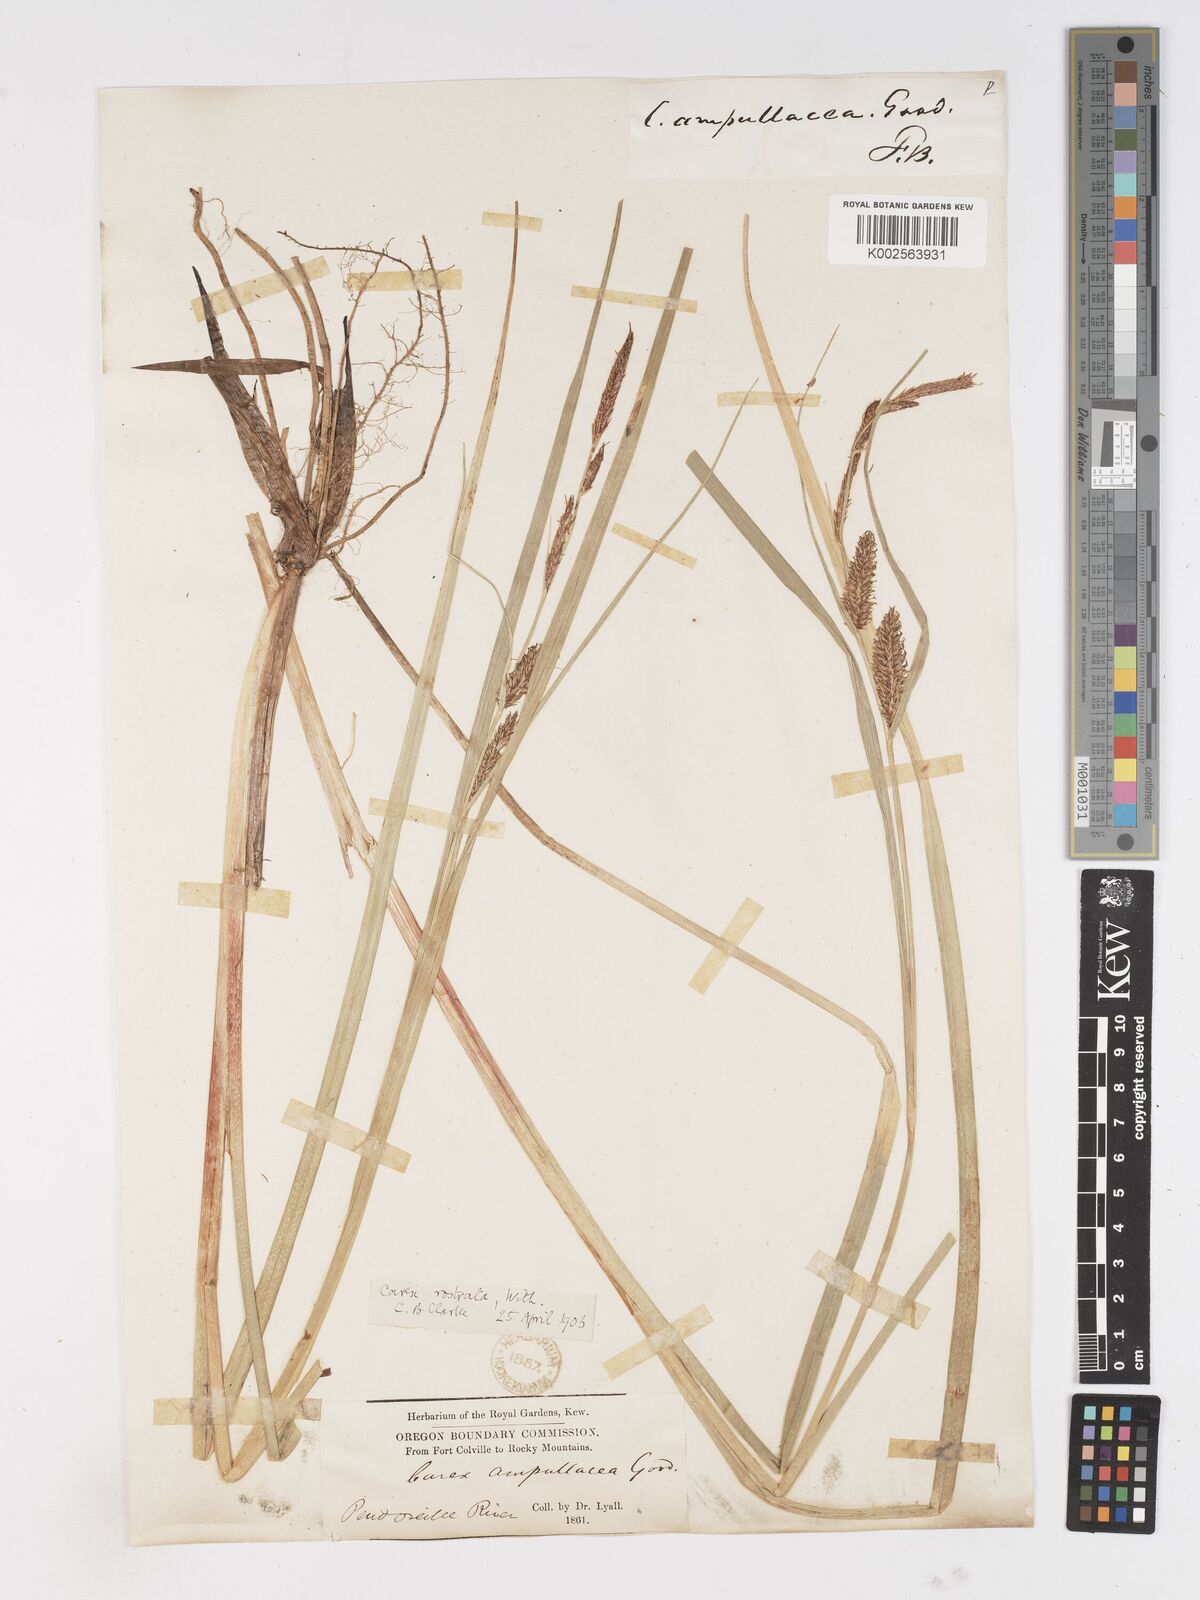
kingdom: Plantae
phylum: Tracheophyta
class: Liliopsida
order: Poales
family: Cyperaceae
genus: Carex
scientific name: Carex rostrata
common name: Bottle sedge
